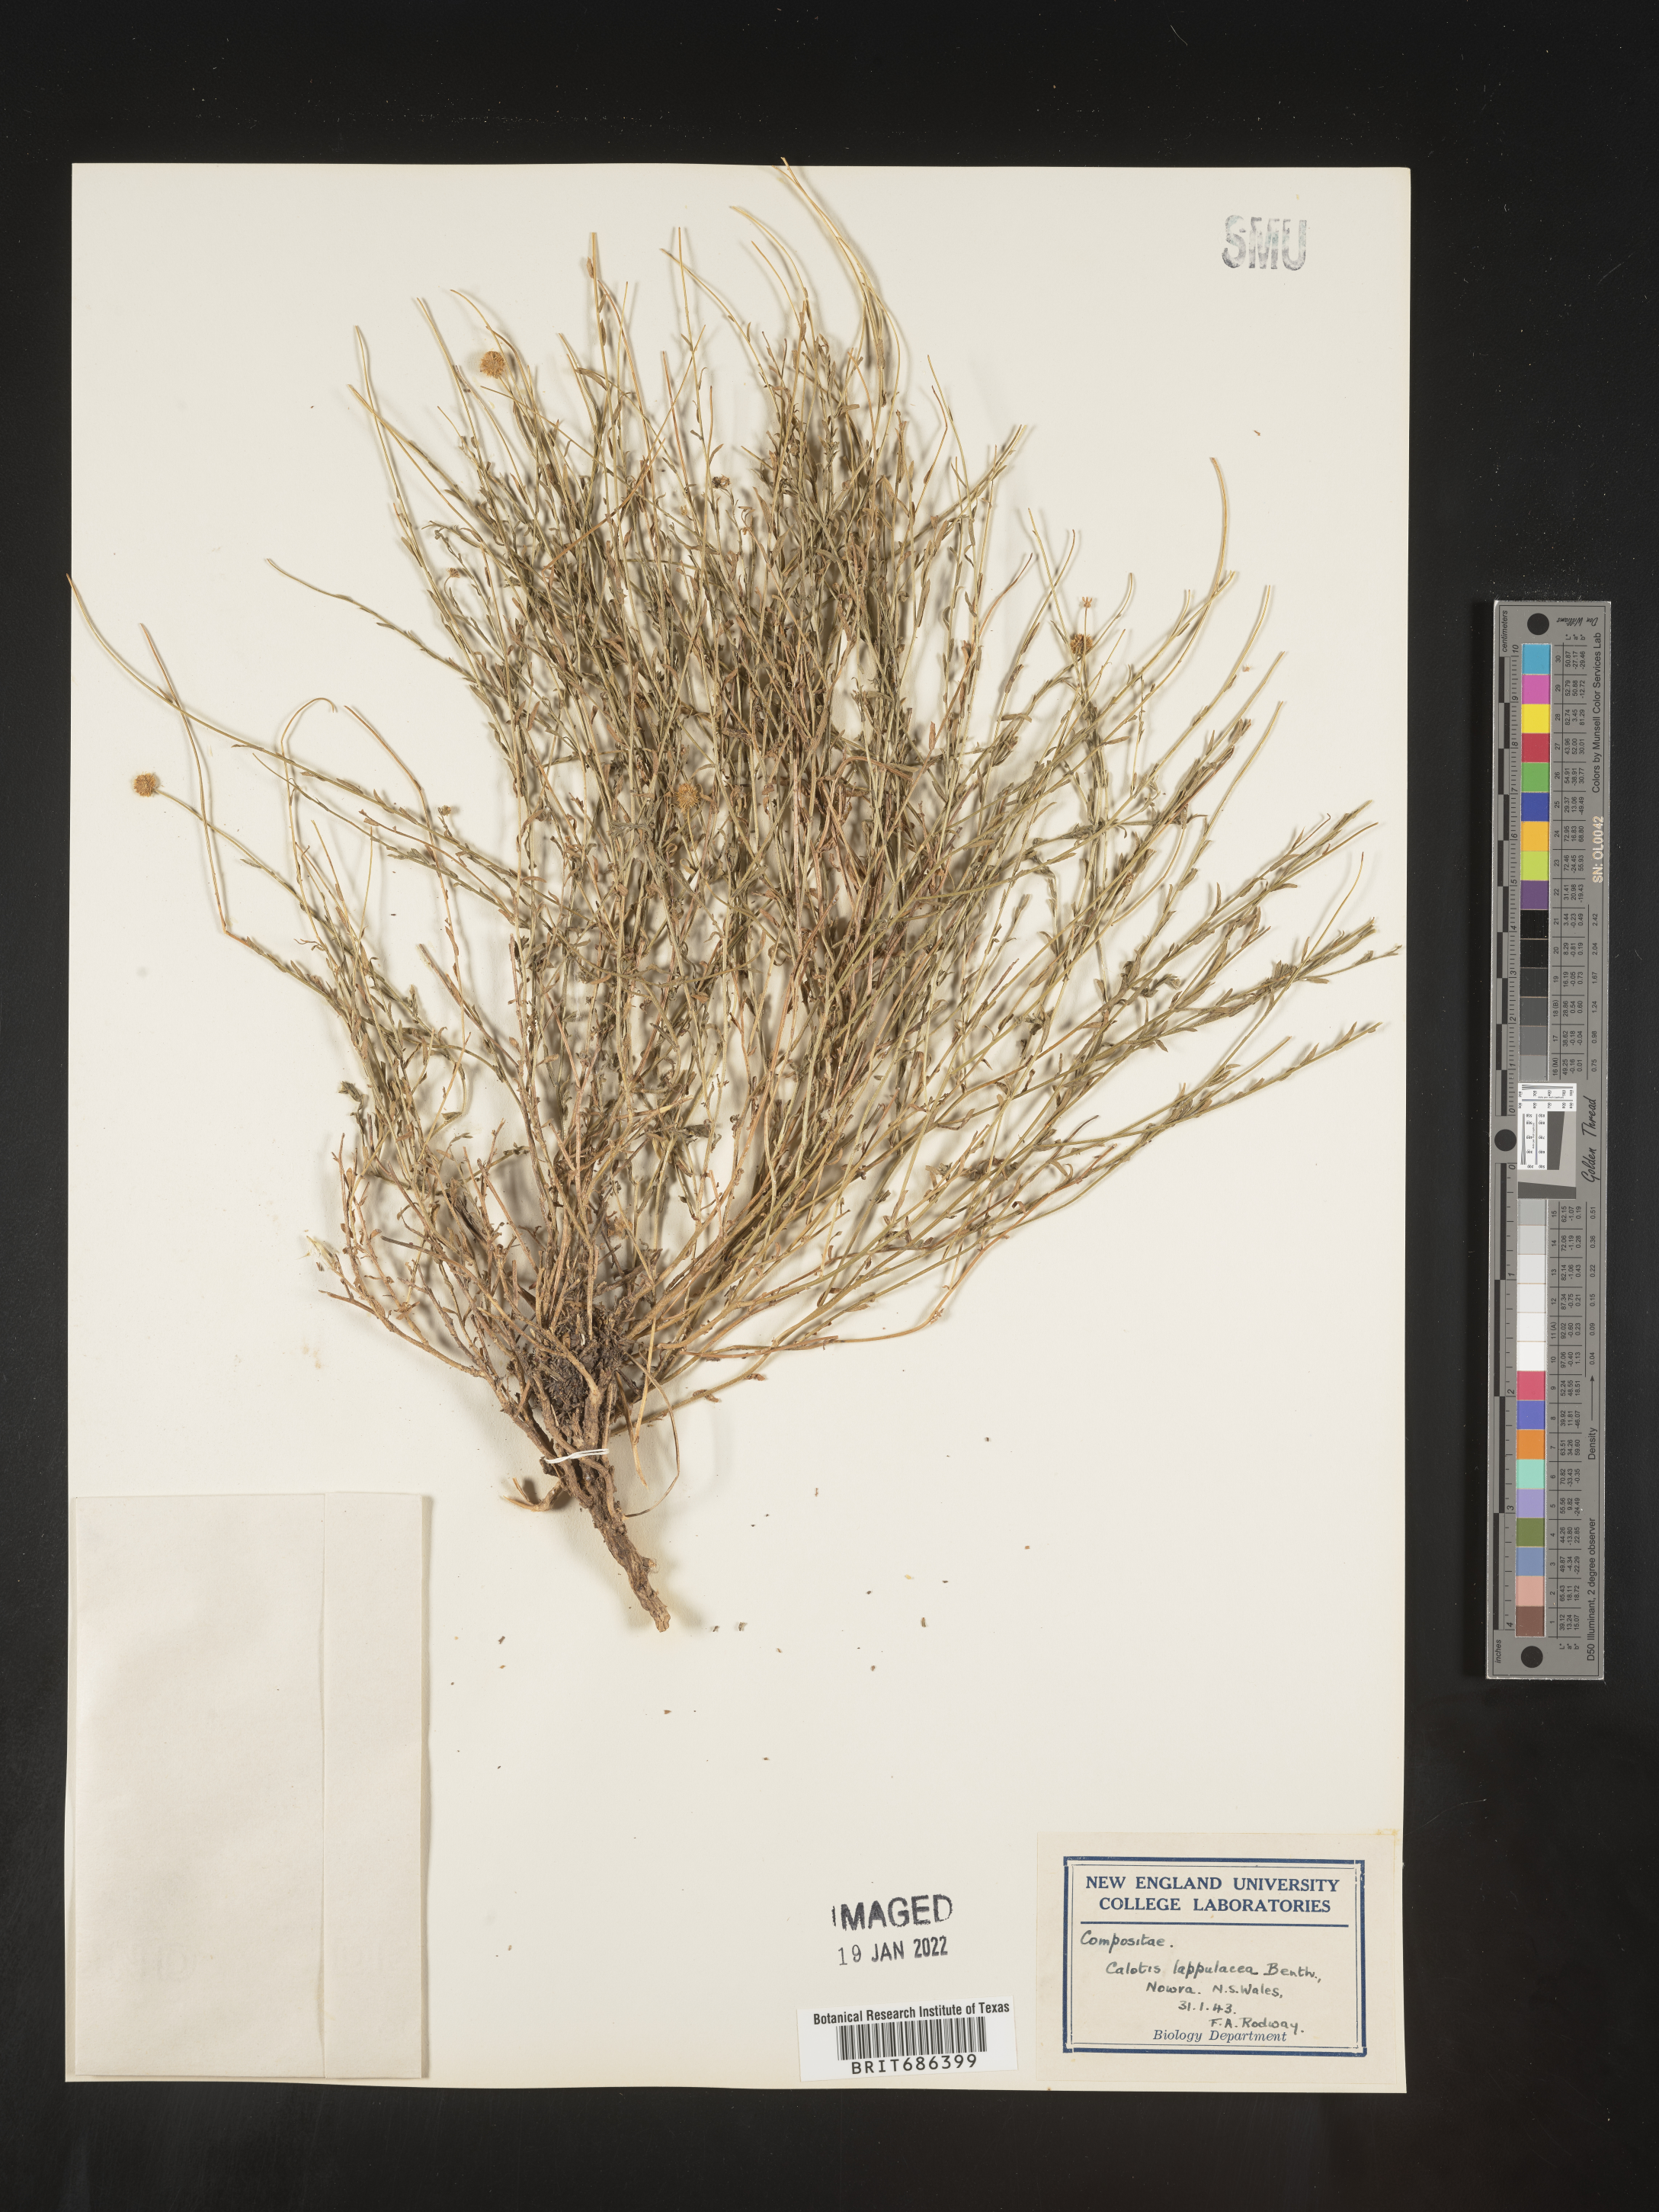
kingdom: Plantae
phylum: Tracheophyta
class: Magnoliopsida
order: Asterales
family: Asteraceae
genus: Calotis
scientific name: Calotis
